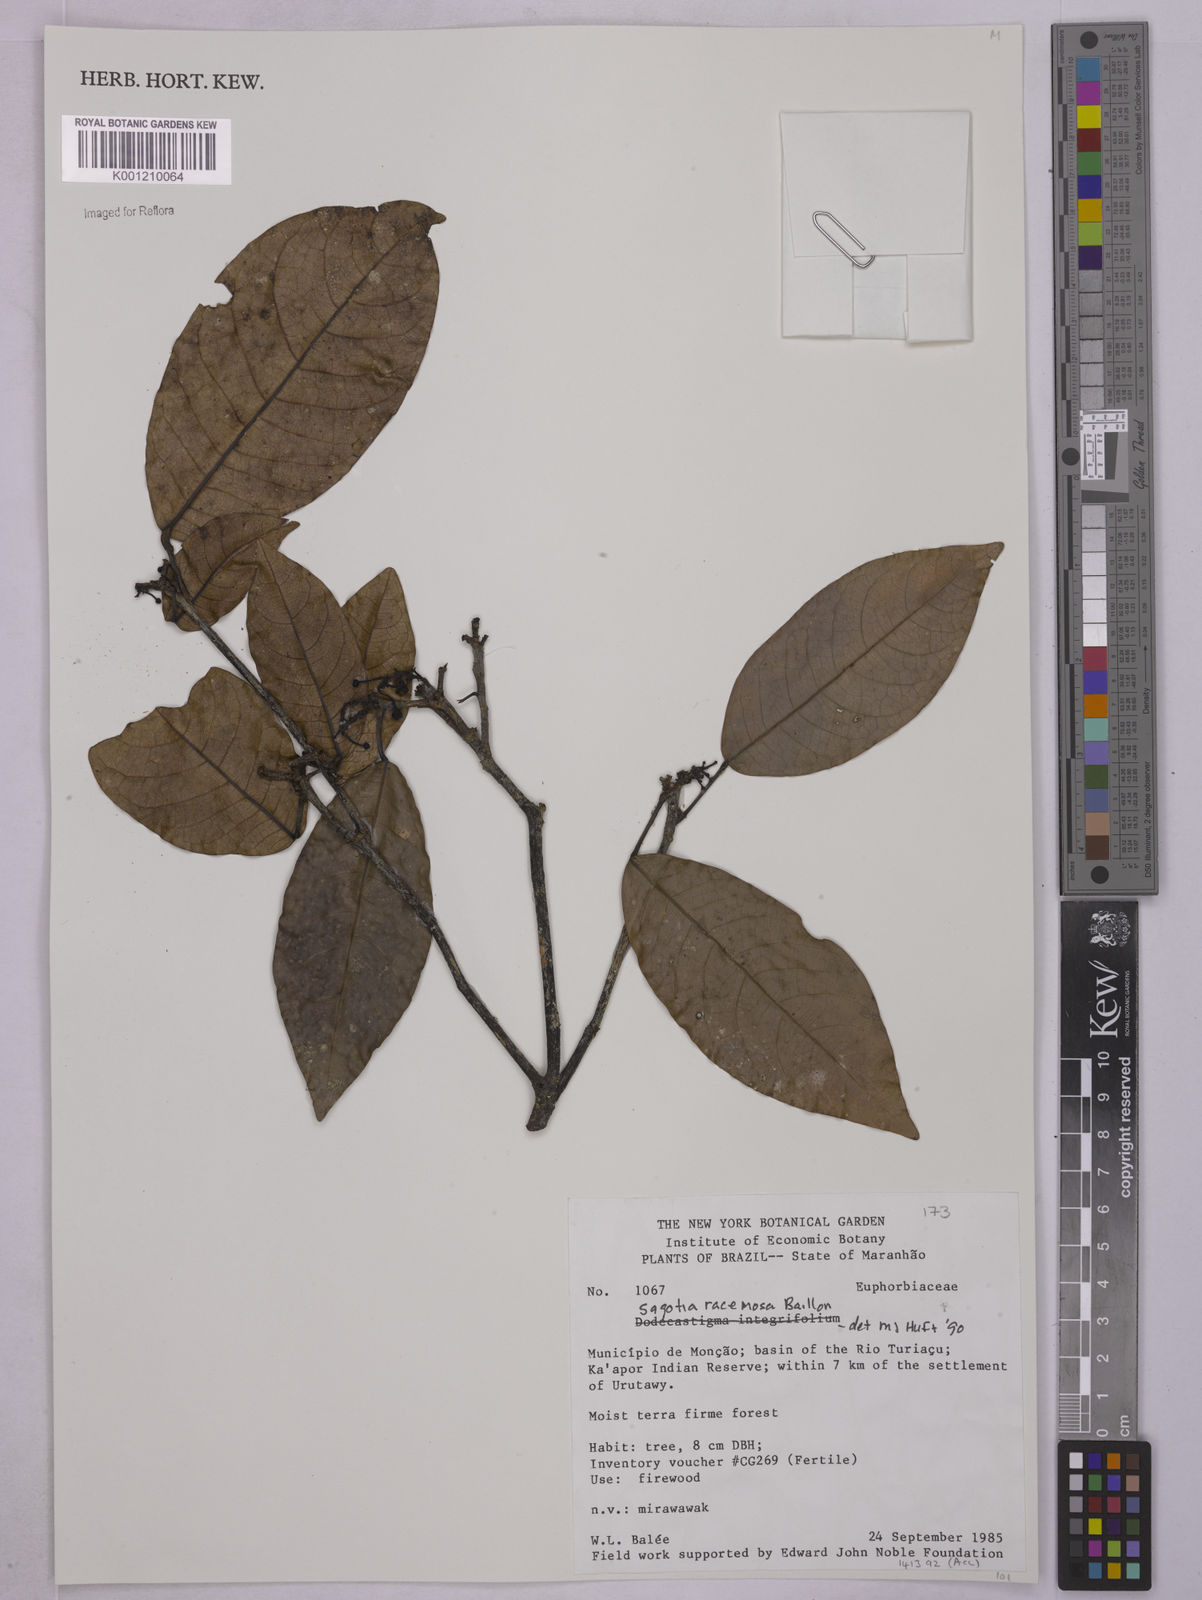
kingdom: Plantae
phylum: Tracheophyta
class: Magnoliopsida
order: Malpighiales
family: Euphorbiaceae
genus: Sagotia
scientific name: Sagotia racemosa
